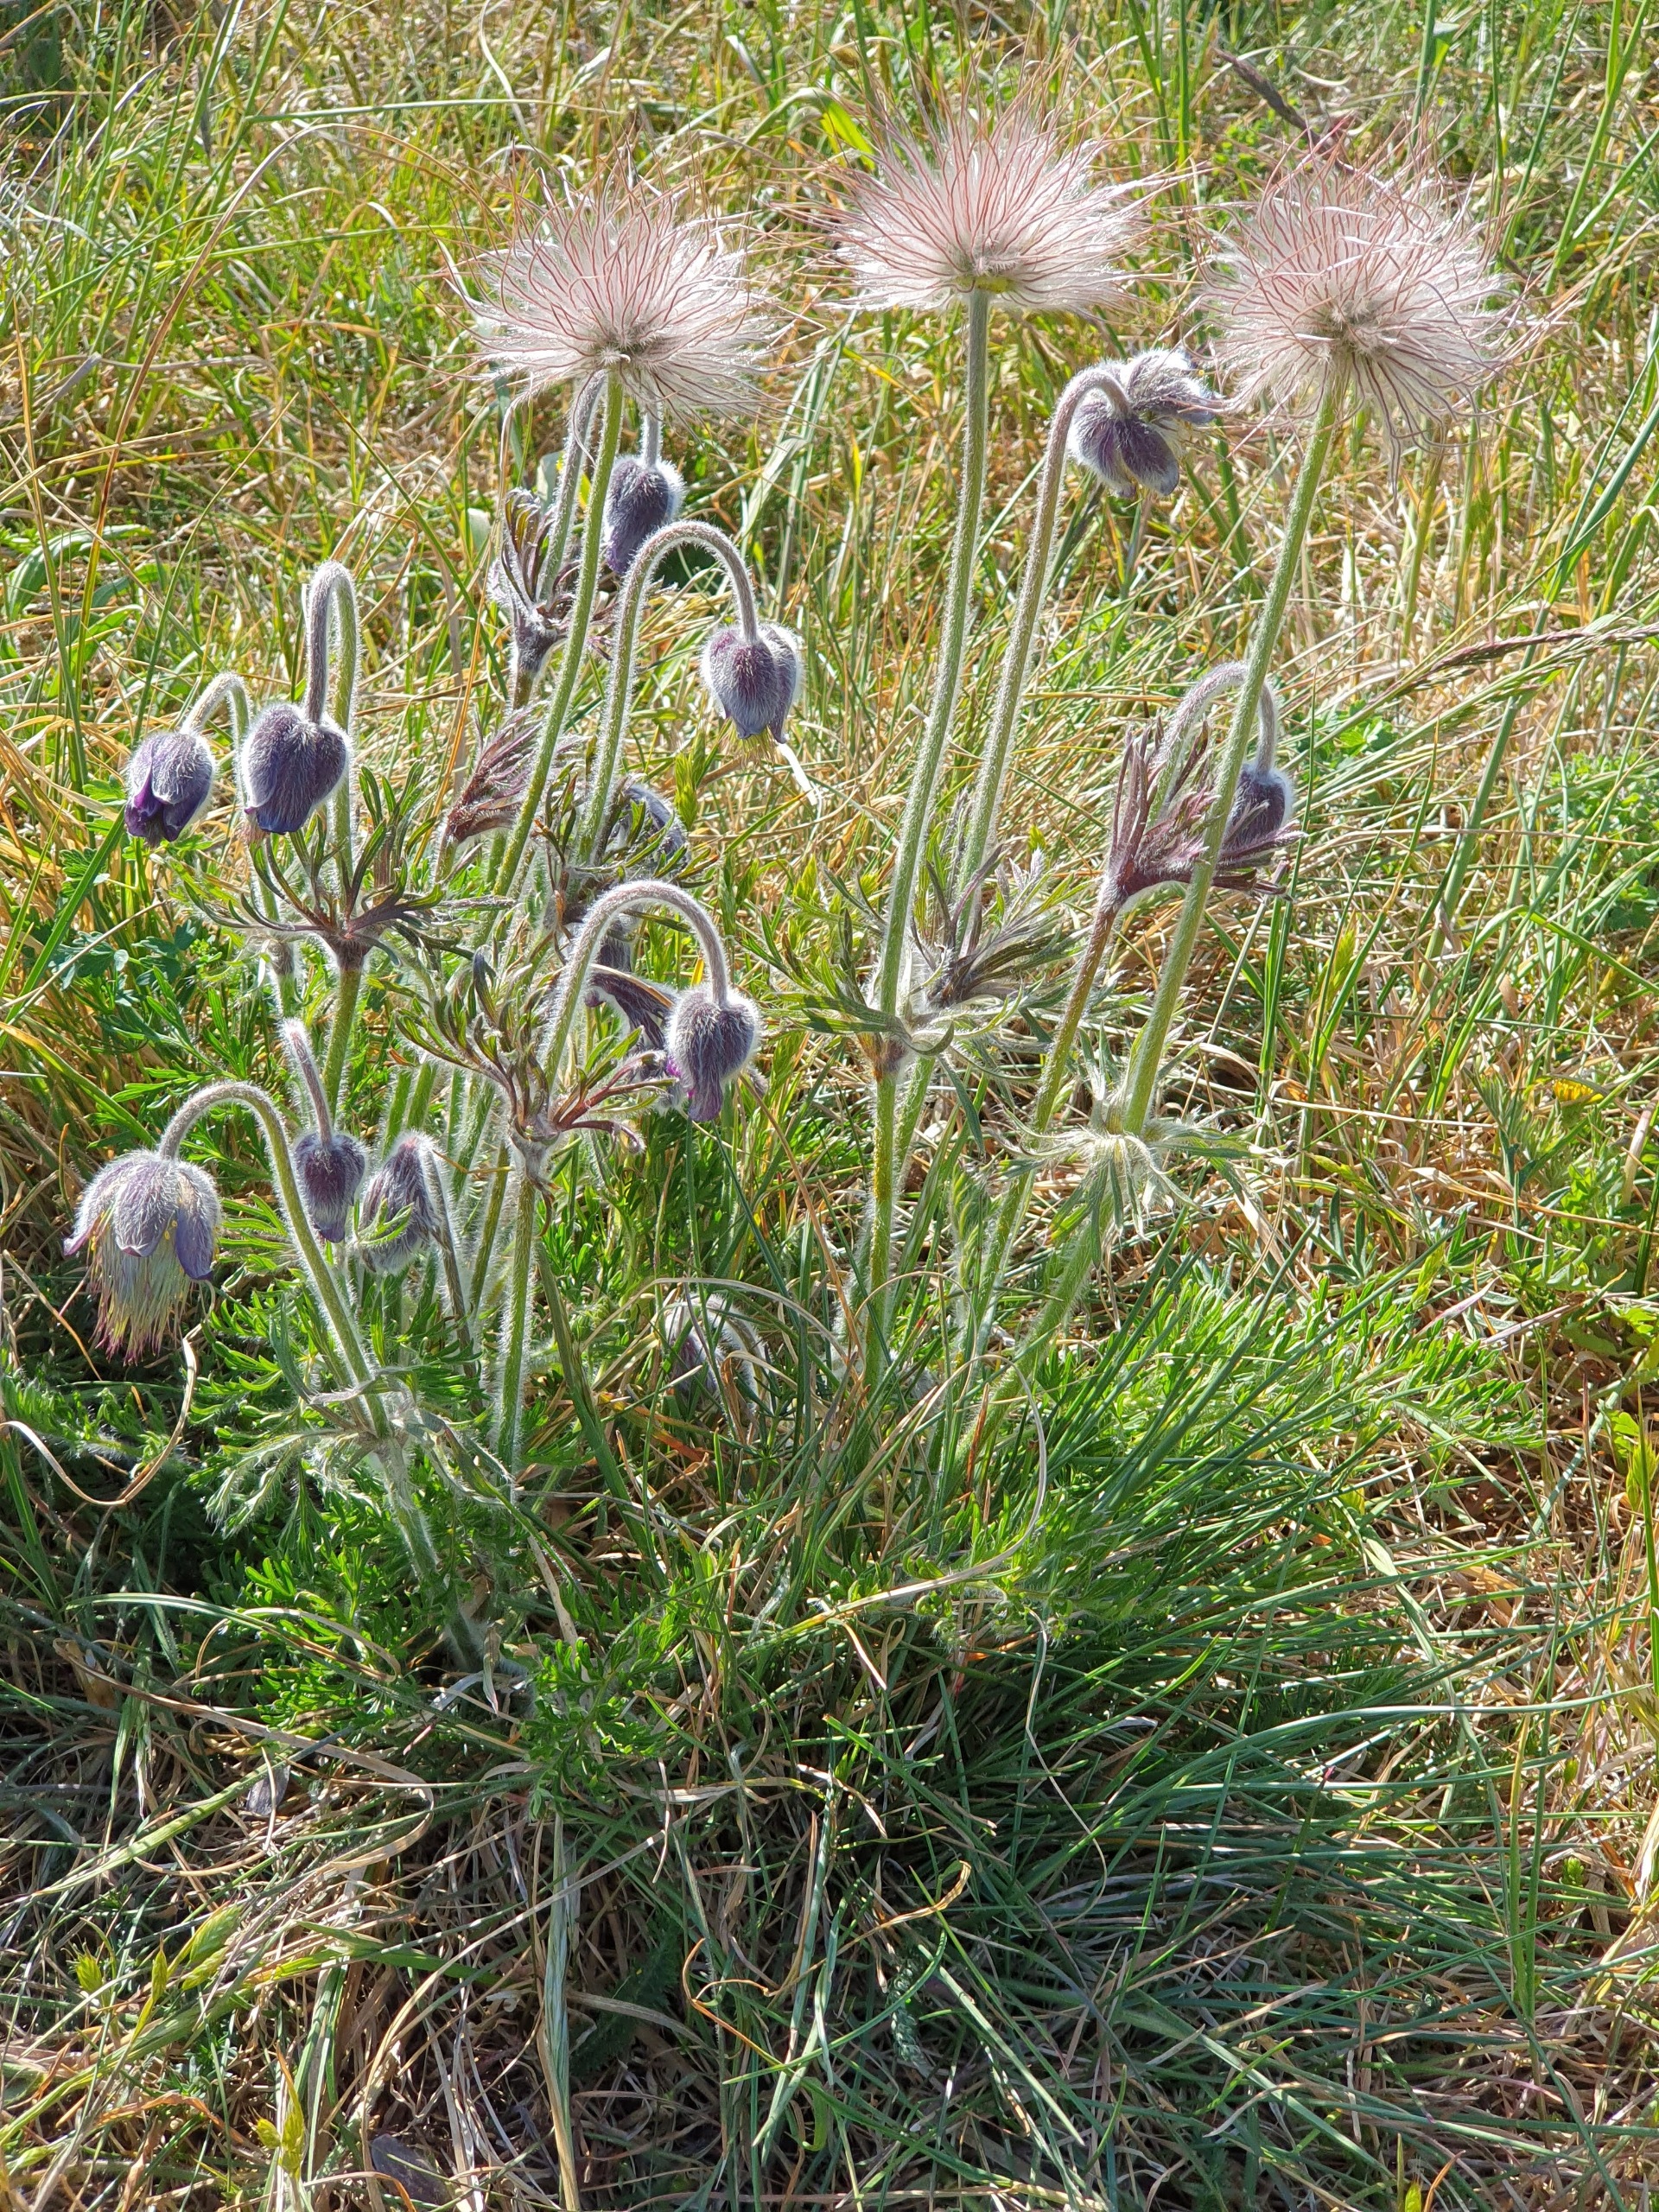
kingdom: Plantae
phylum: Tracheophyta
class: Magnoliopsida
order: Ranunculales
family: Ranunculaceae
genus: Pulsatilla
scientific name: Pulsatilla pratensis
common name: Nikkende kobjælde
